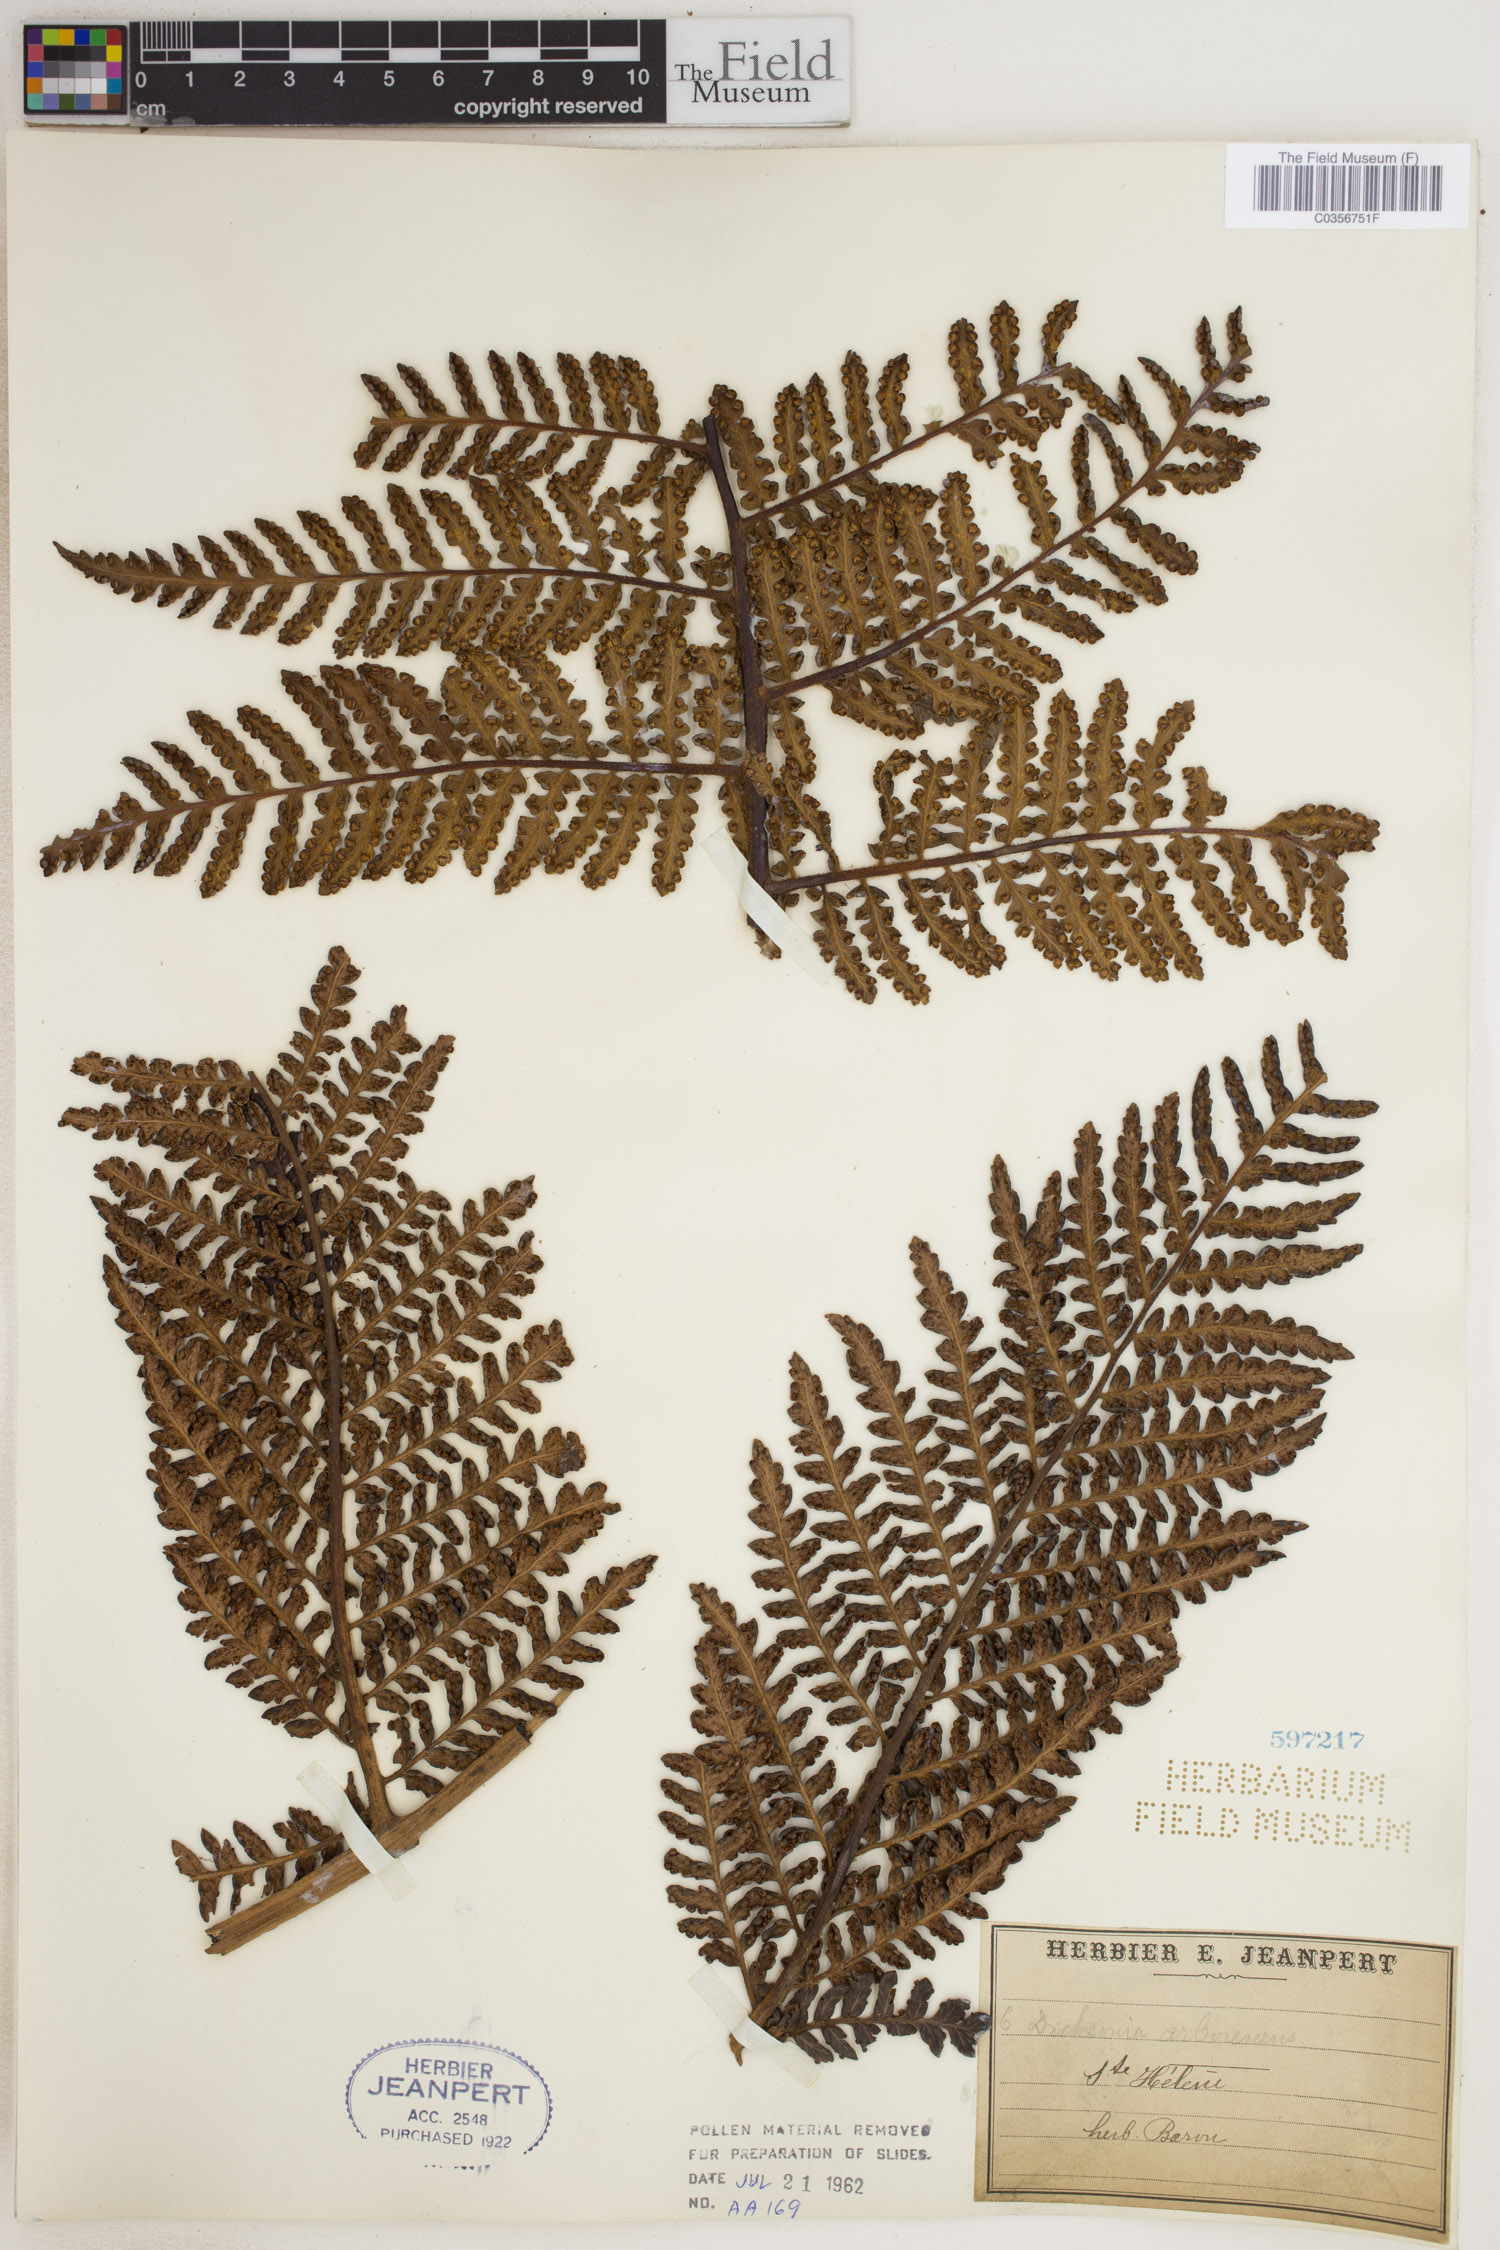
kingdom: Plantae
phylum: Tracheophyta
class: Polypodiopsida
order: Cyatheales
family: Dicksoniaceae
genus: Dicksonia
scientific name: Dicksonia arborescens
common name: St helena tree fern
